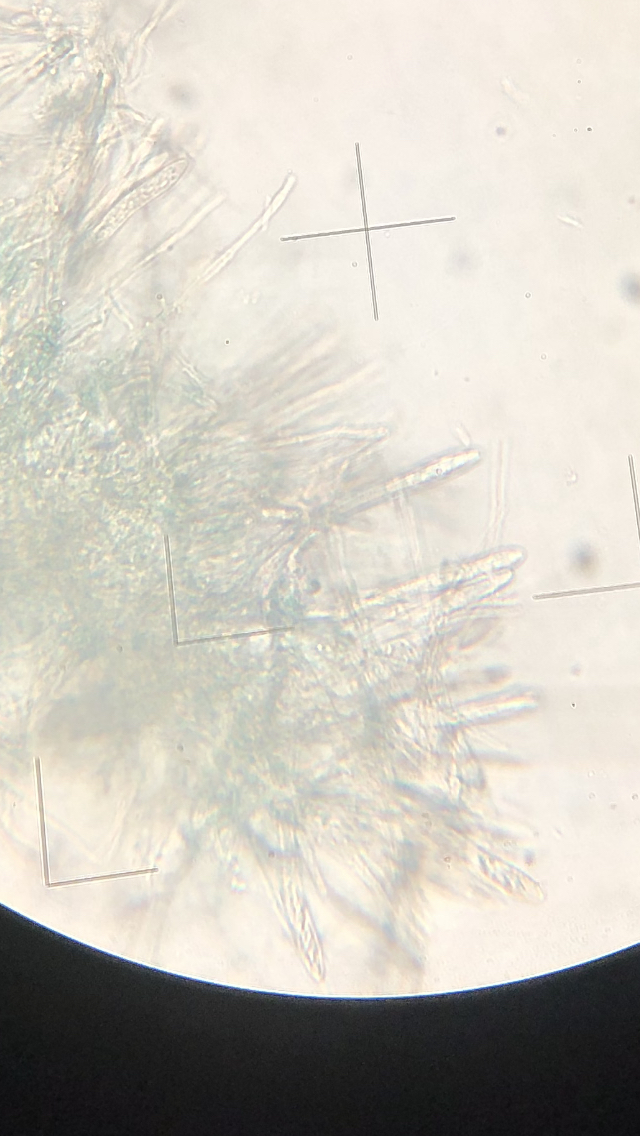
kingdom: Fungi
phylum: Ascomycota
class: Leotiomycetes
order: Helotiales
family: Chlorociboriaceae
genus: Chlorociboria
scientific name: Chlorociboria aeruginascens
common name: almindelig grønskive
